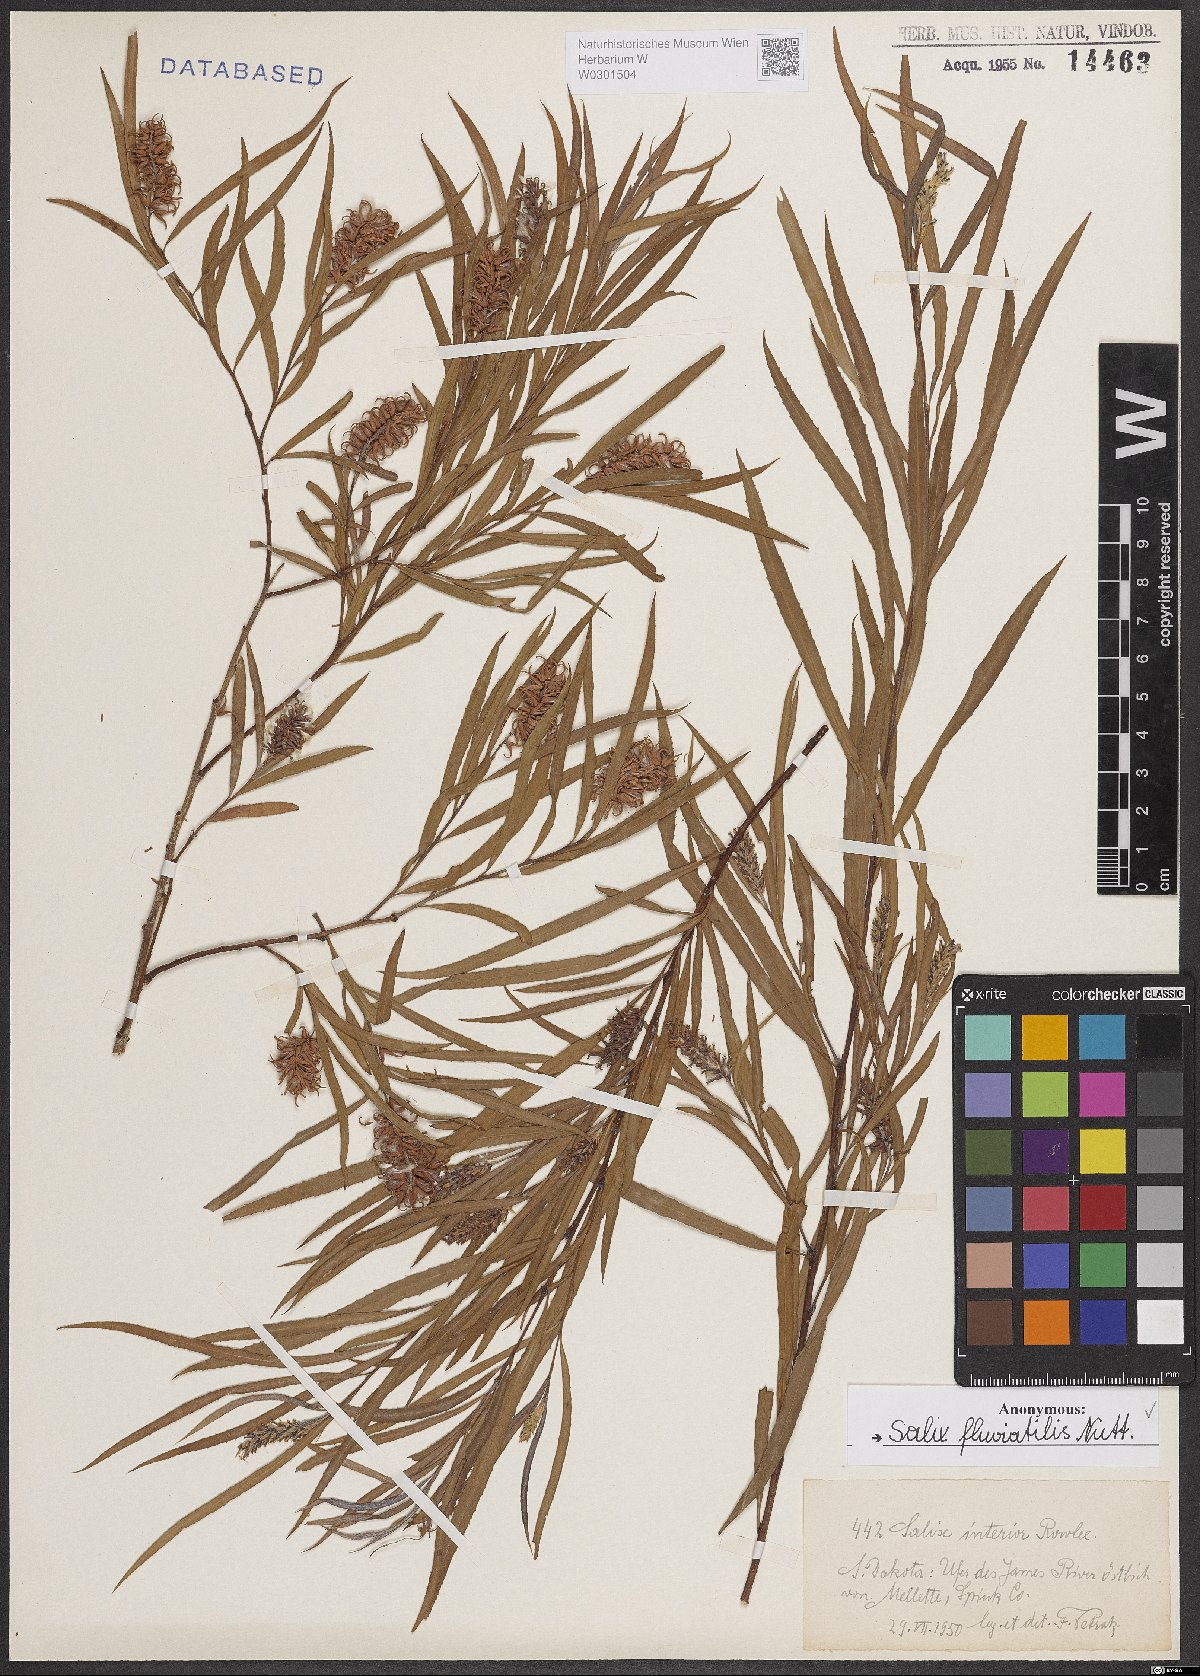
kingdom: Plantae
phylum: Tracheophyta
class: Magnoliopsida
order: Malpighiales
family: Salicaceae
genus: Salix
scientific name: Salix melanopsis
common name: Dusky willow
